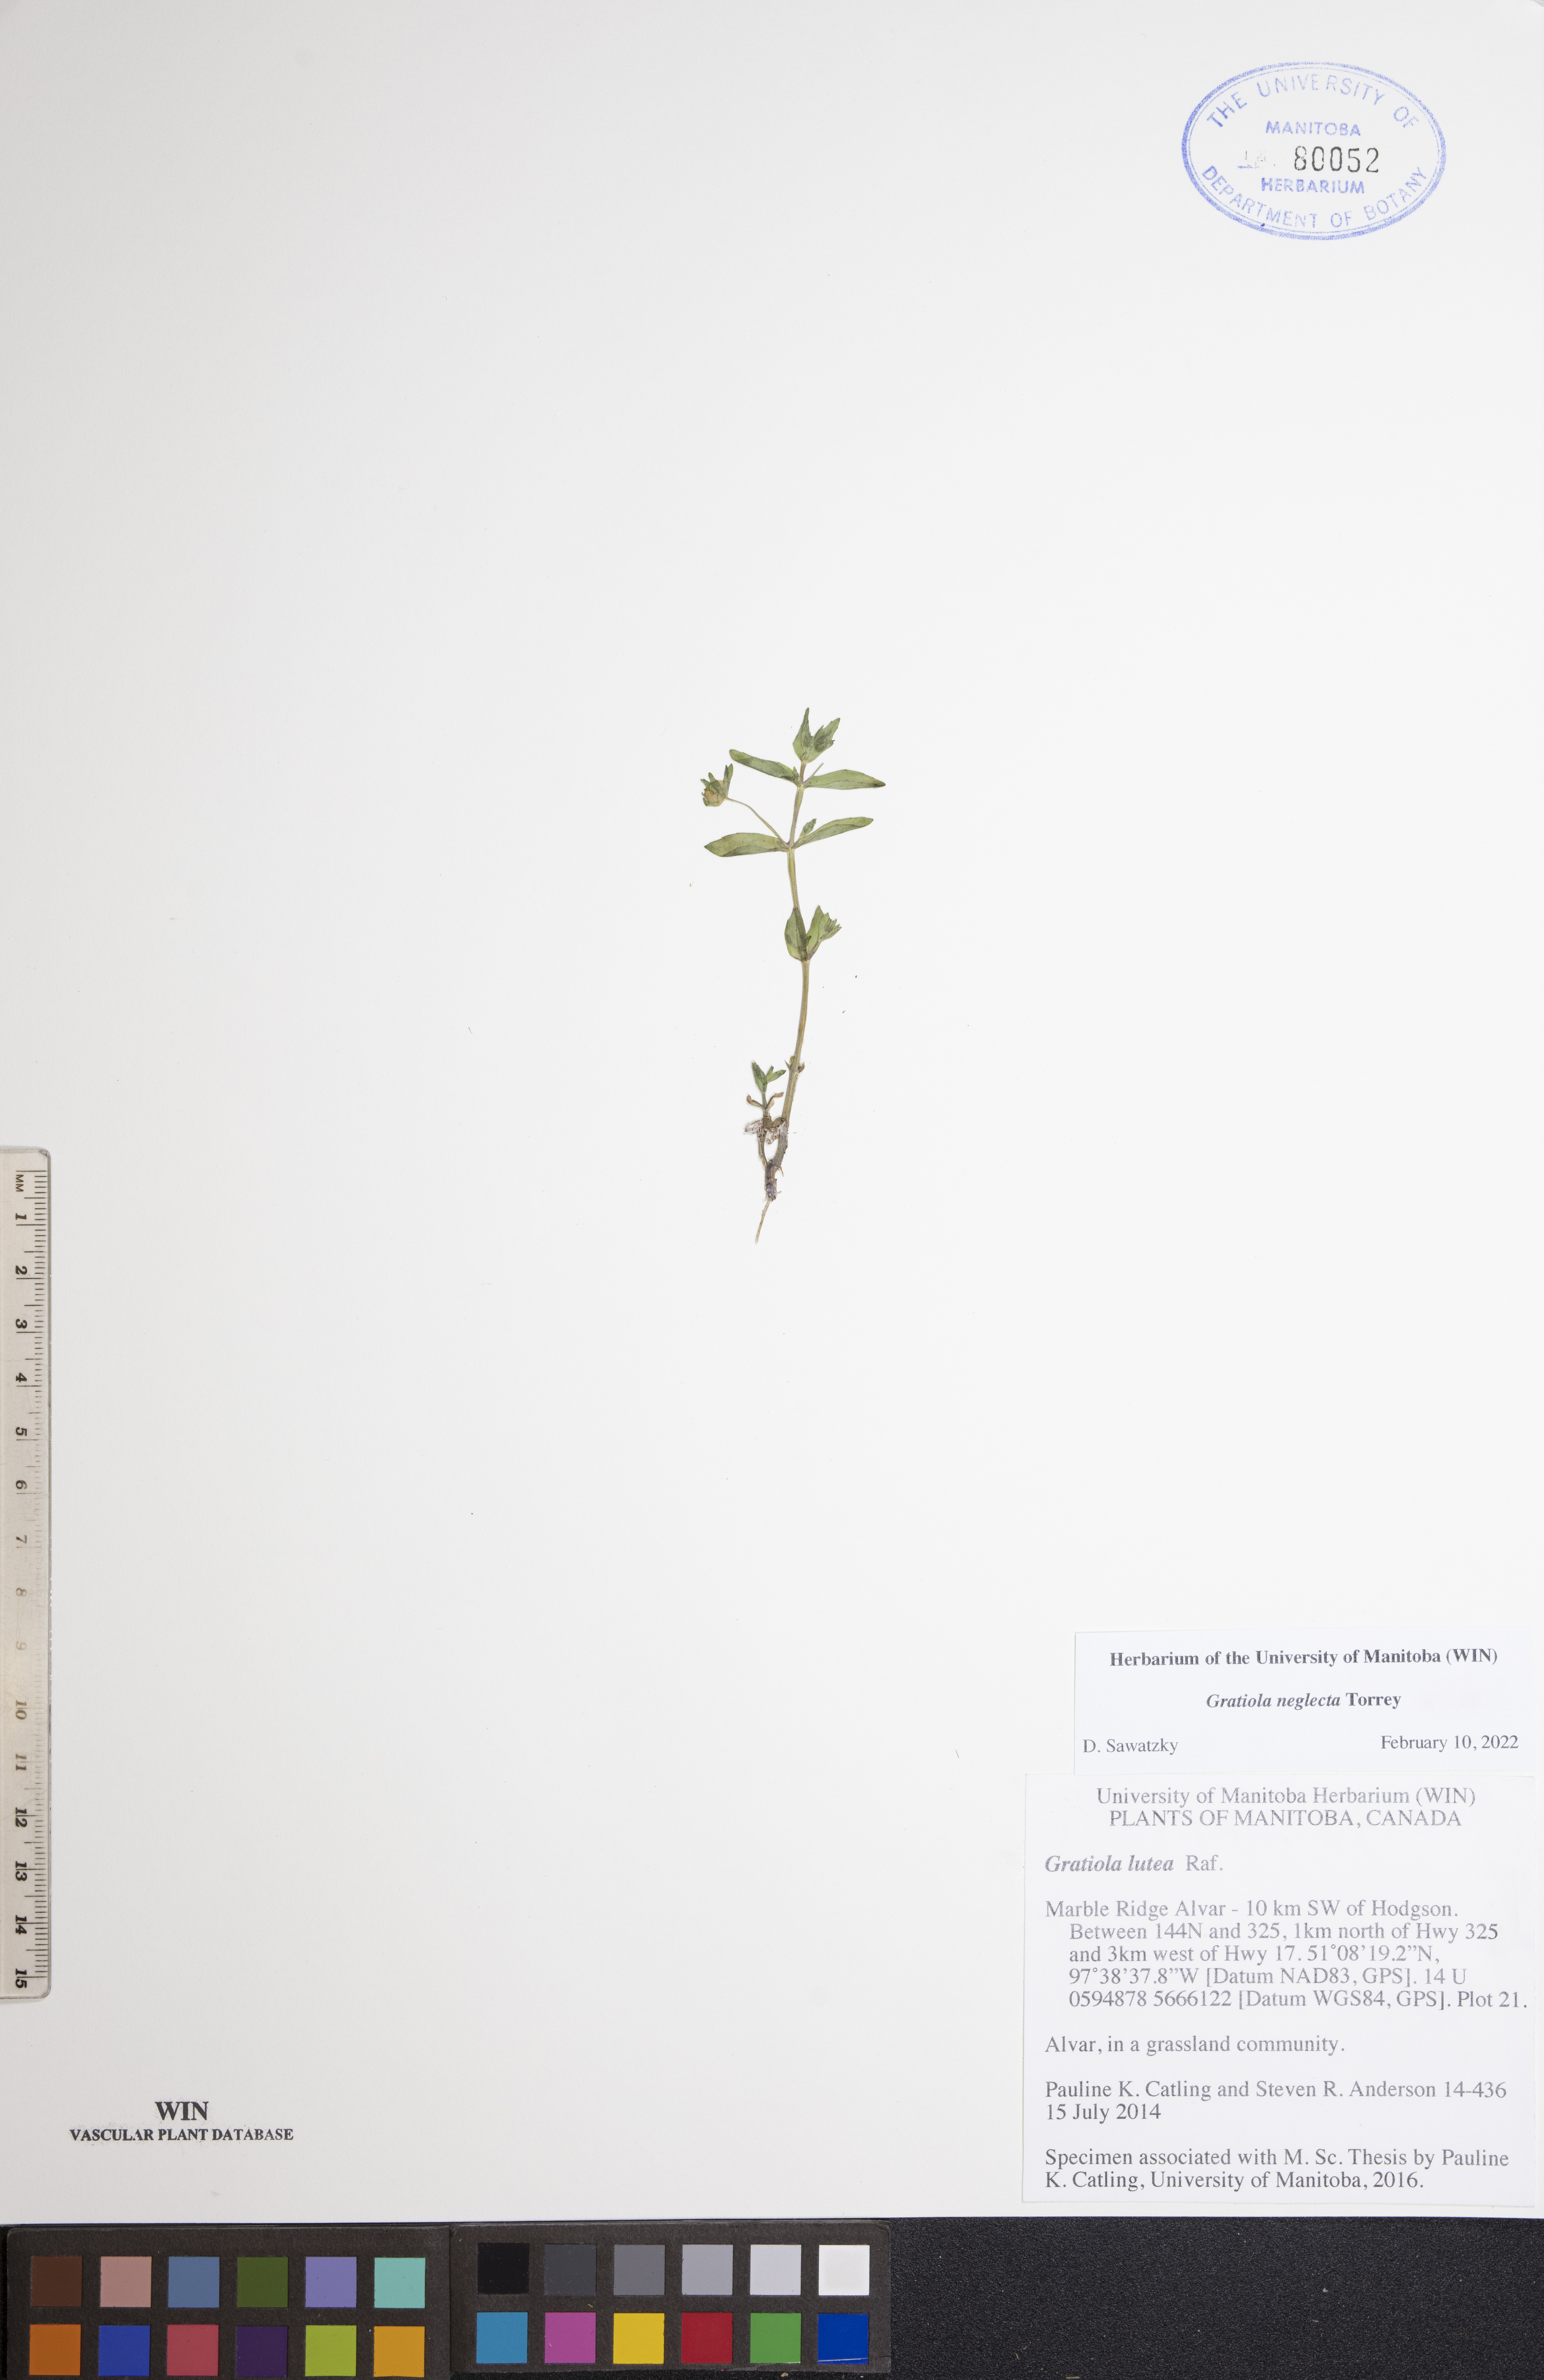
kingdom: Plantae
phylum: Tracheophyta
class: Magnoliopsida
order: Lamiales
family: Plantaginaceae
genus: Gratiola
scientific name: Gratiola neglecta
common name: American hedge-hyssop
